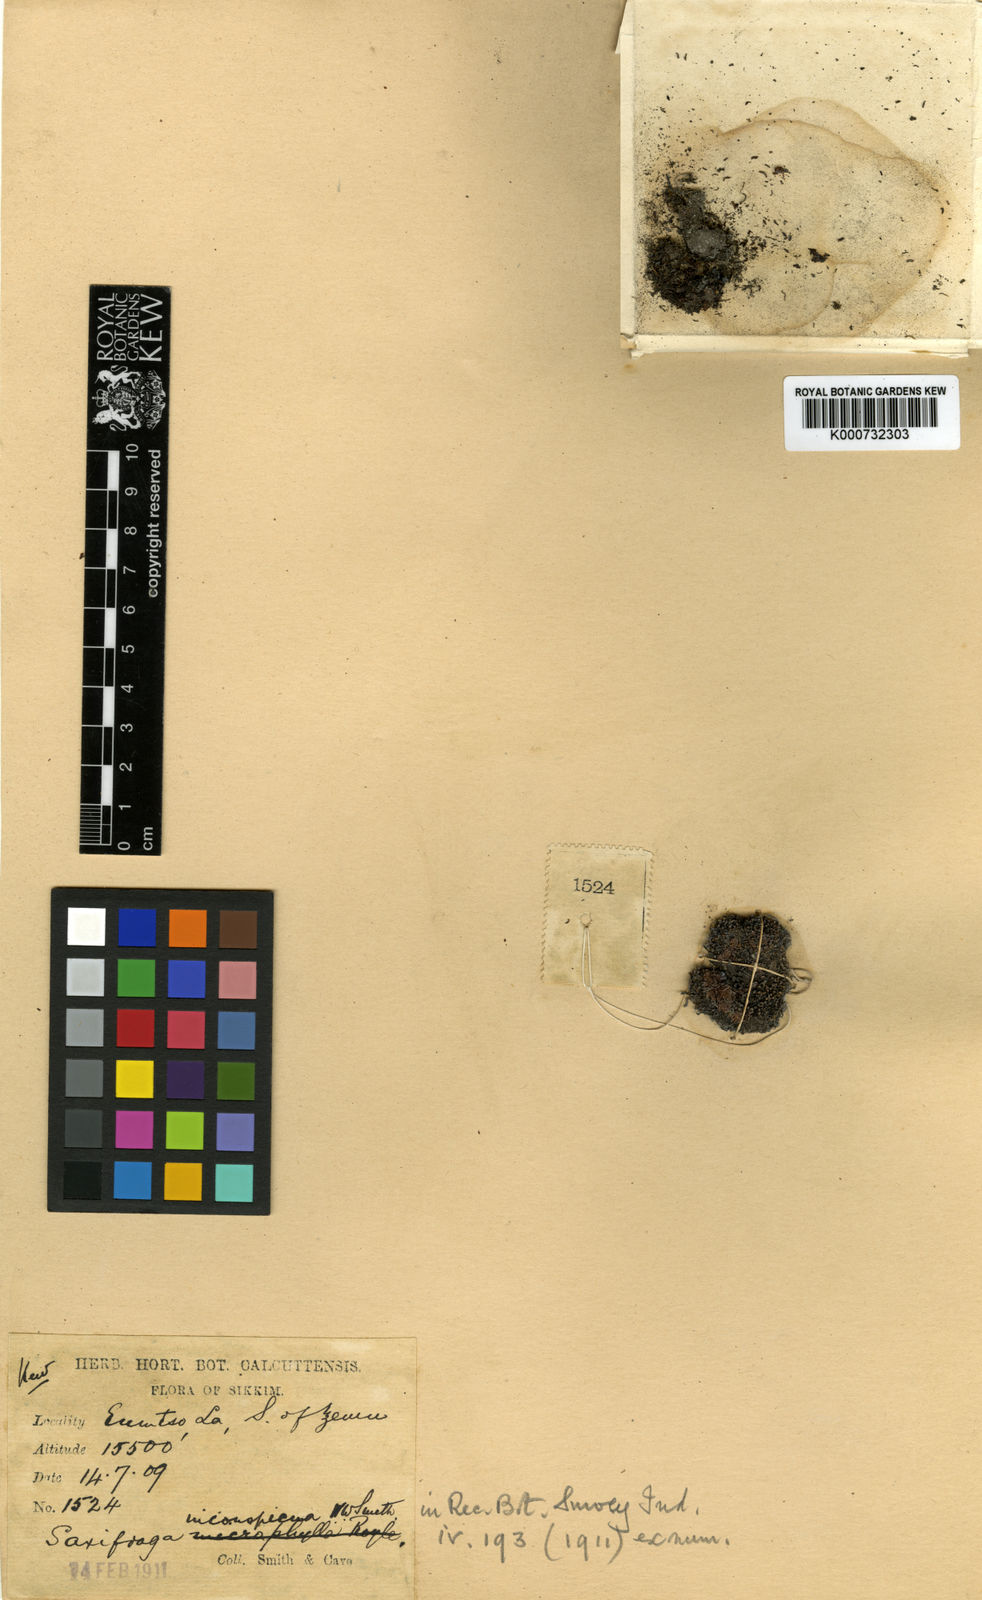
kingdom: Plantae
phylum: Tracheophyta
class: Magnoliopsida
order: Saxifragales
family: Saxifragaceae
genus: Saxifraga
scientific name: Saxifraga inconspicua
